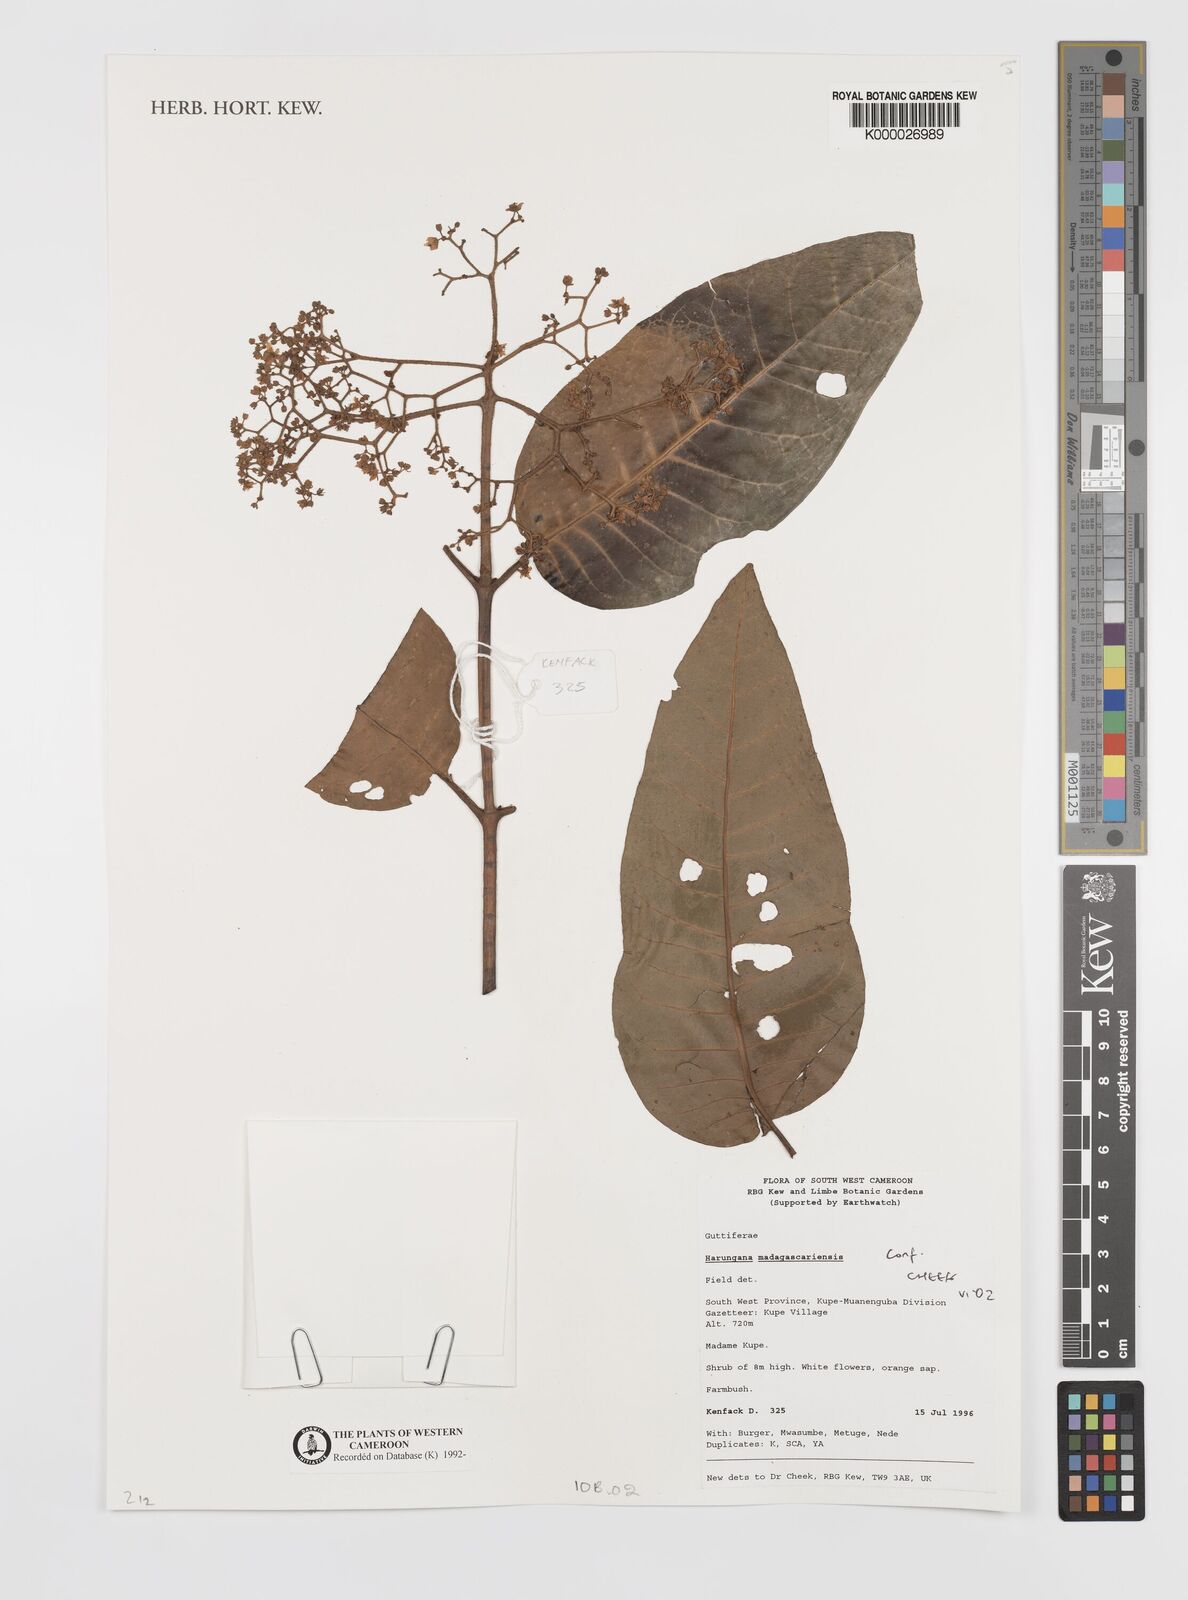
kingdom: Plantae
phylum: Tracheophyta
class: Magnoliopsida
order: Malpighiales
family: Hypericaceae
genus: Harungana
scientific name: Harungana madagascariensis
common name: Orange milktree
